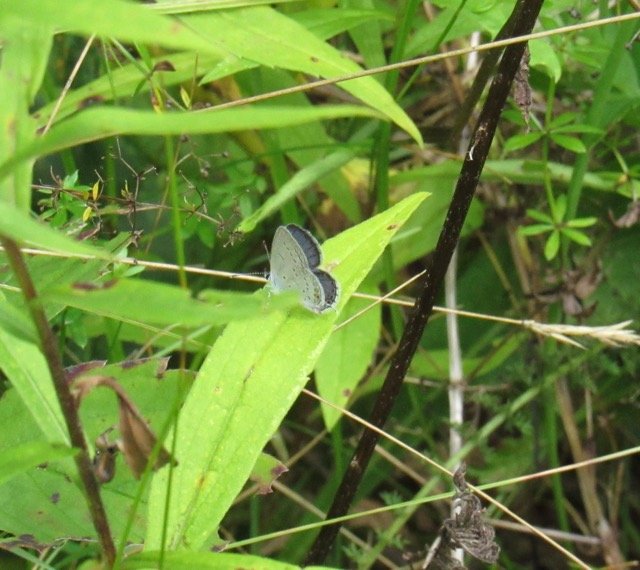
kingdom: Animalia
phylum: Arthropoda
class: Insecta
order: Lepidoptera
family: Lycaenidae
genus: Elkalyce
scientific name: Elkalyce comyntas
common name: Eastern Tailed-Blue
